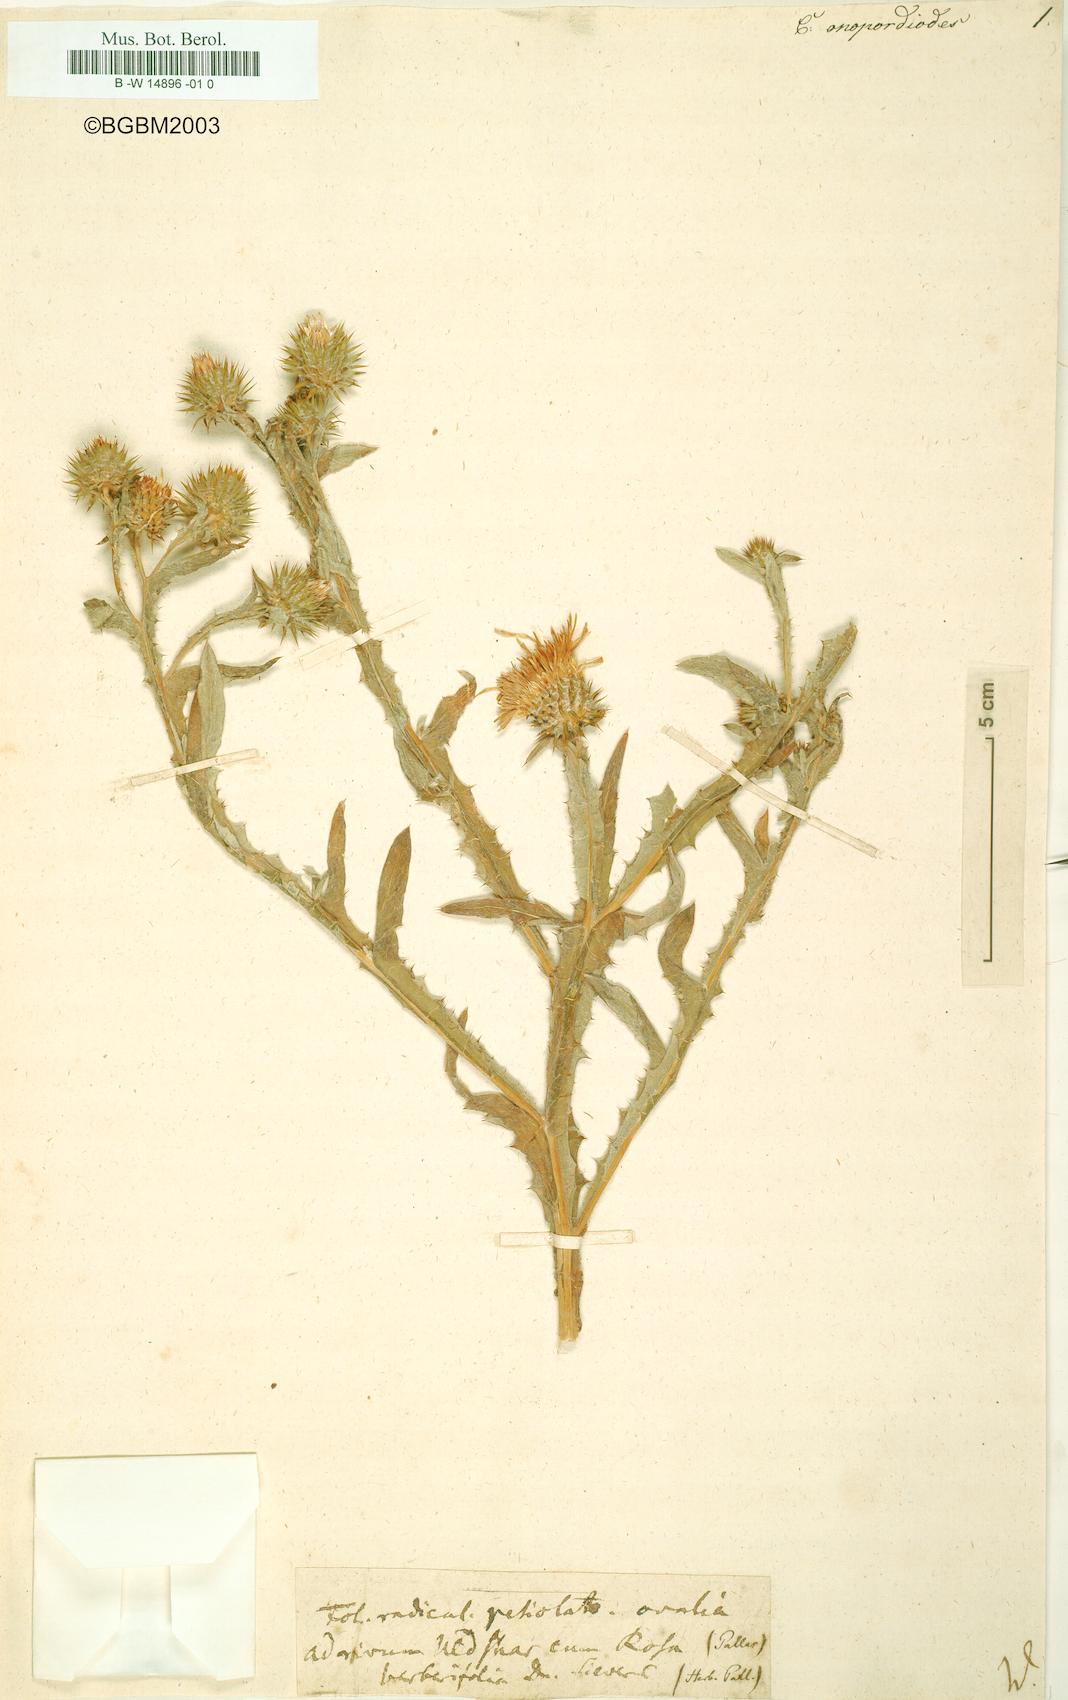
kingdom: Plantae
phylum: Tracheophyta
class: Magnoliopsida
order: Asterales
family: Asteraceae
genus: Carduus
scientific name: Carduus onopordioides
